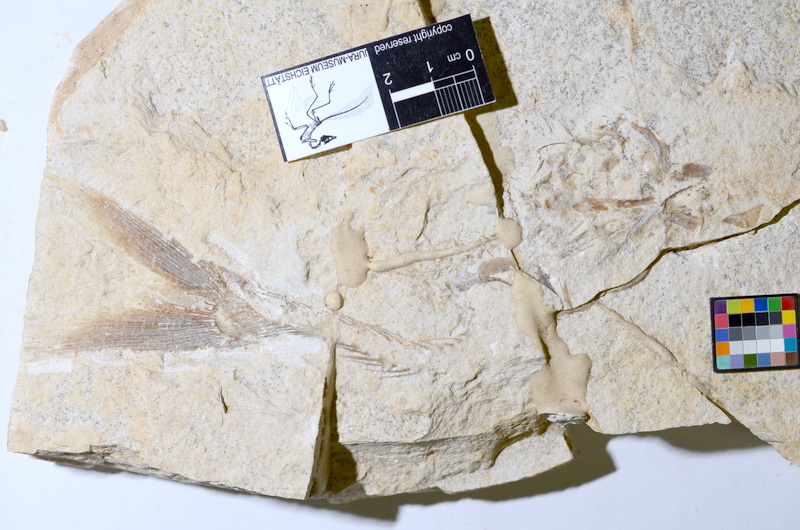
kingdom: Animalia
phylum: Chordata
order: Amiiformes
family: Caturidae
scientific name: Caturidae
